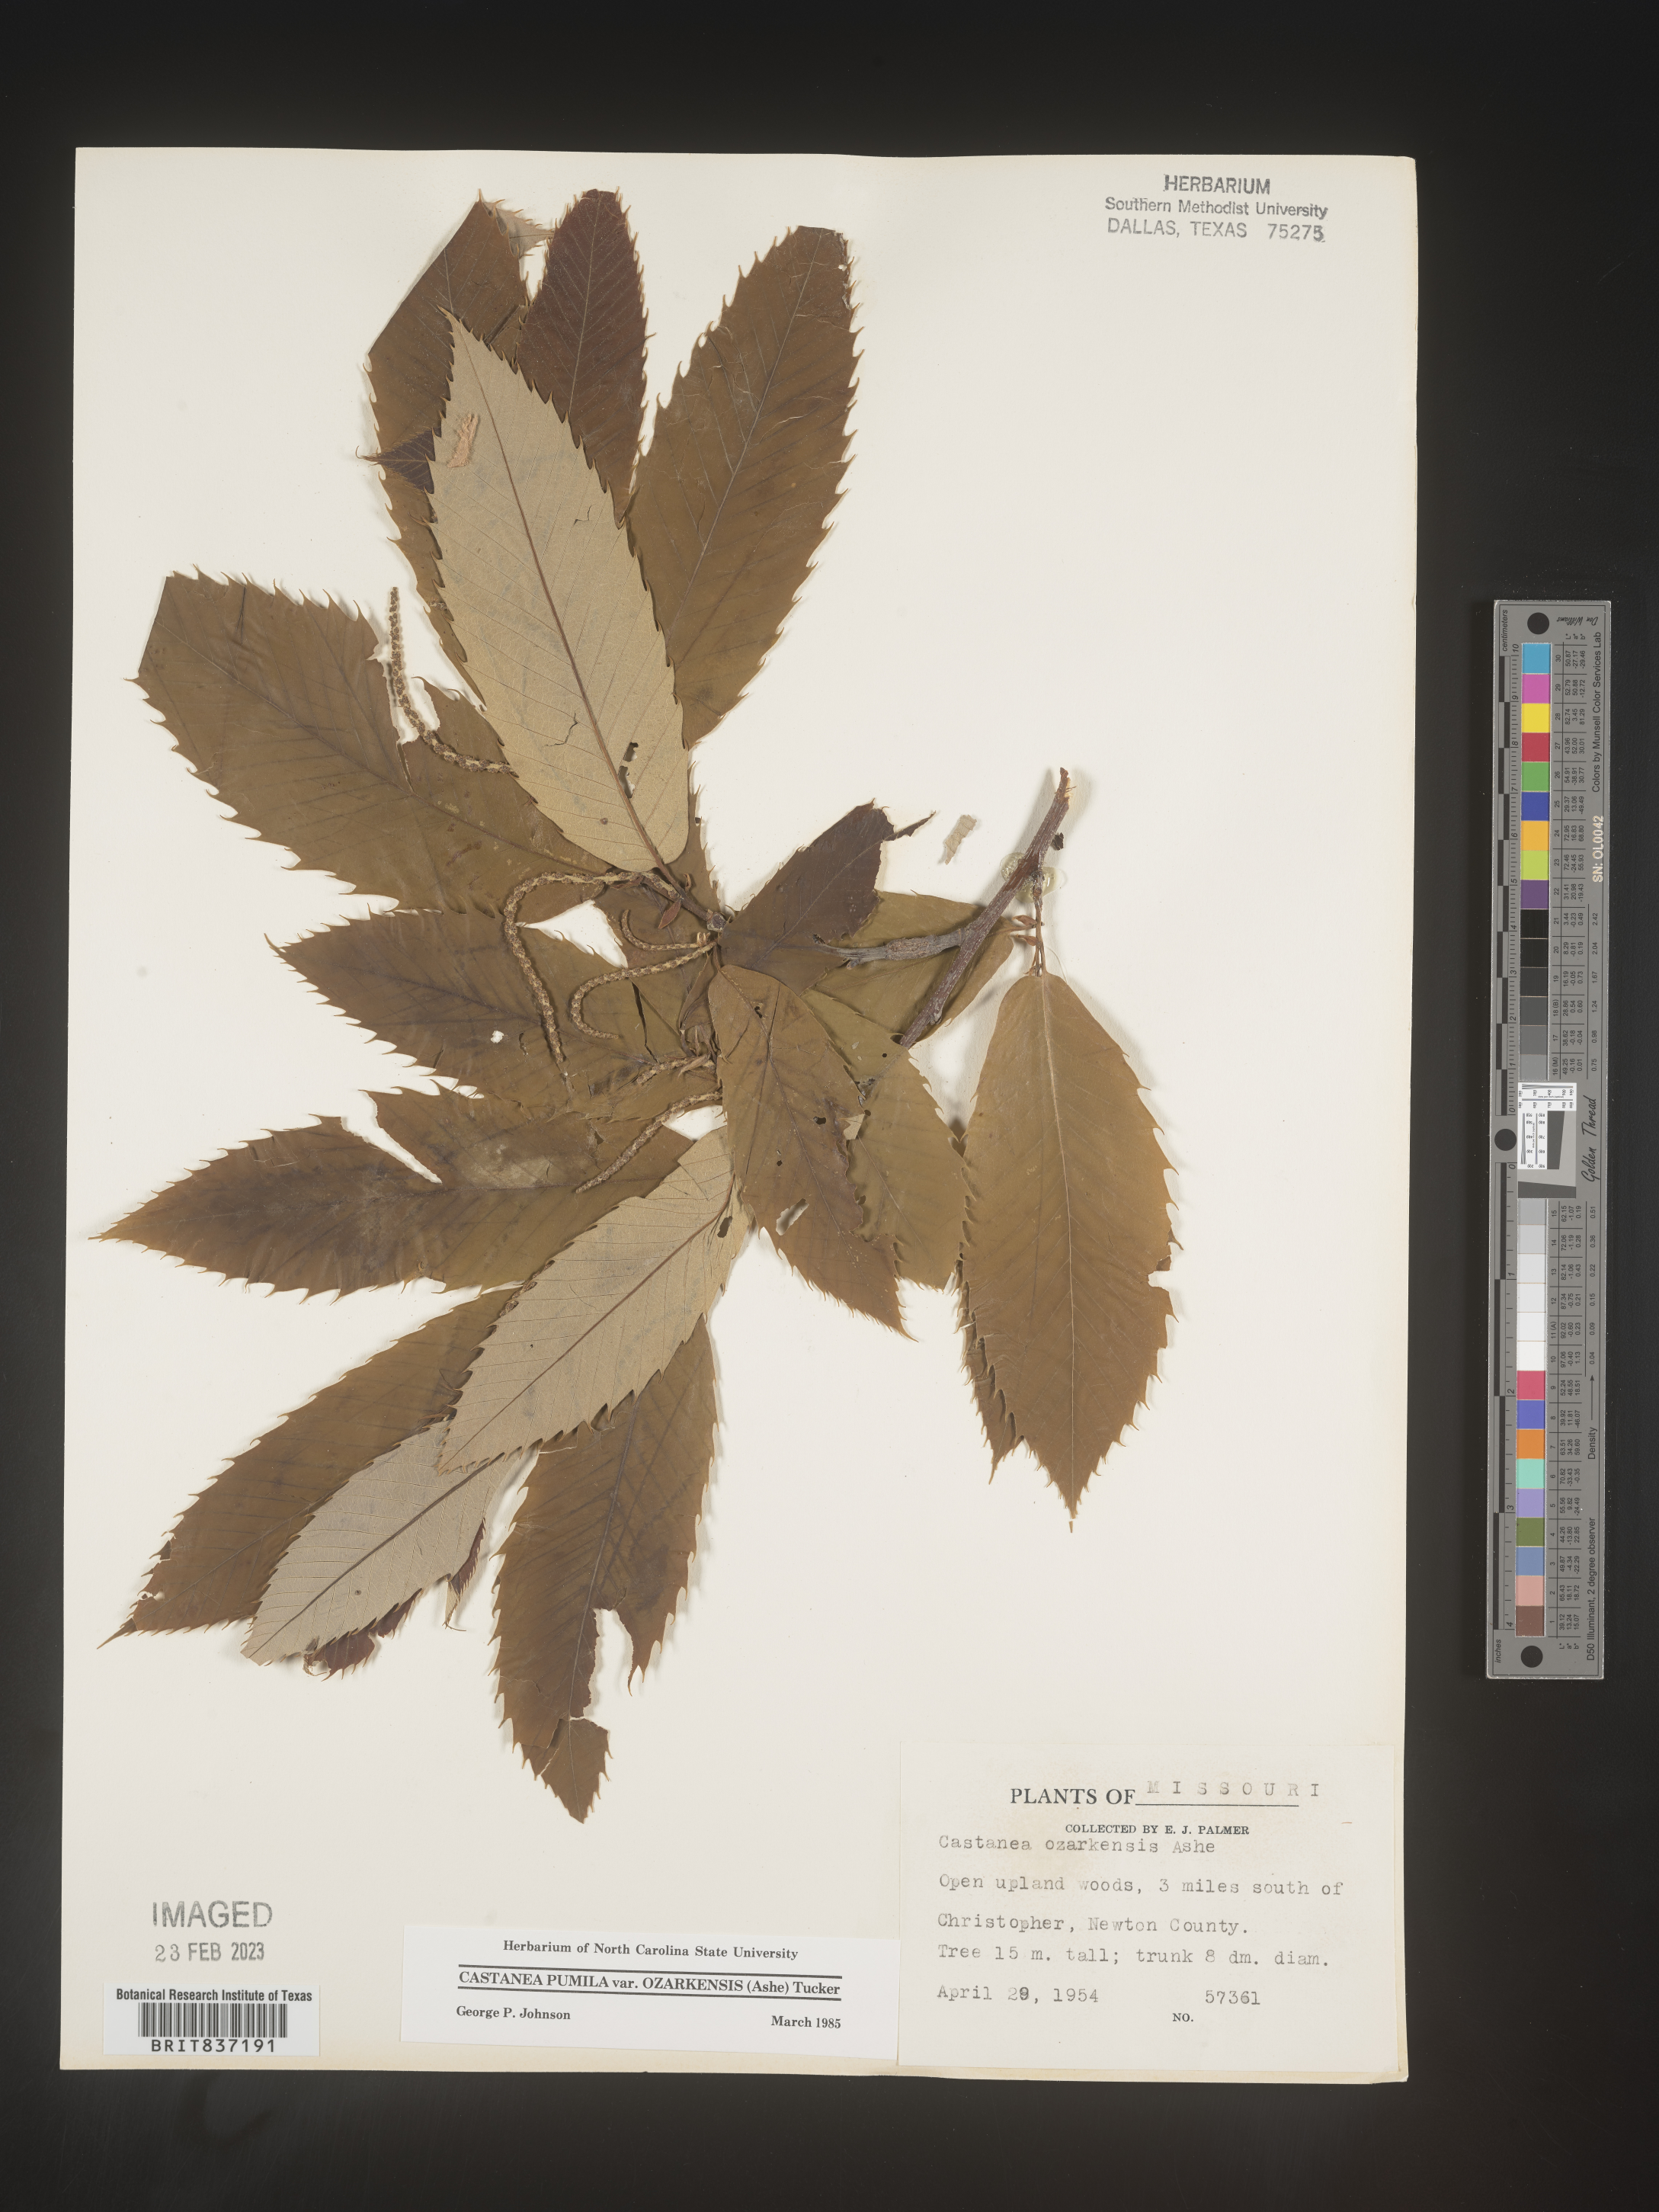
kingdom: Plantae
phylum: Tracheophyta
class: Magnoliopsida
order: Fagales
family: Fagaceae
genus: Castanea
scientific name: Castanea ozarkensis
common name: Ozark chinkapin
